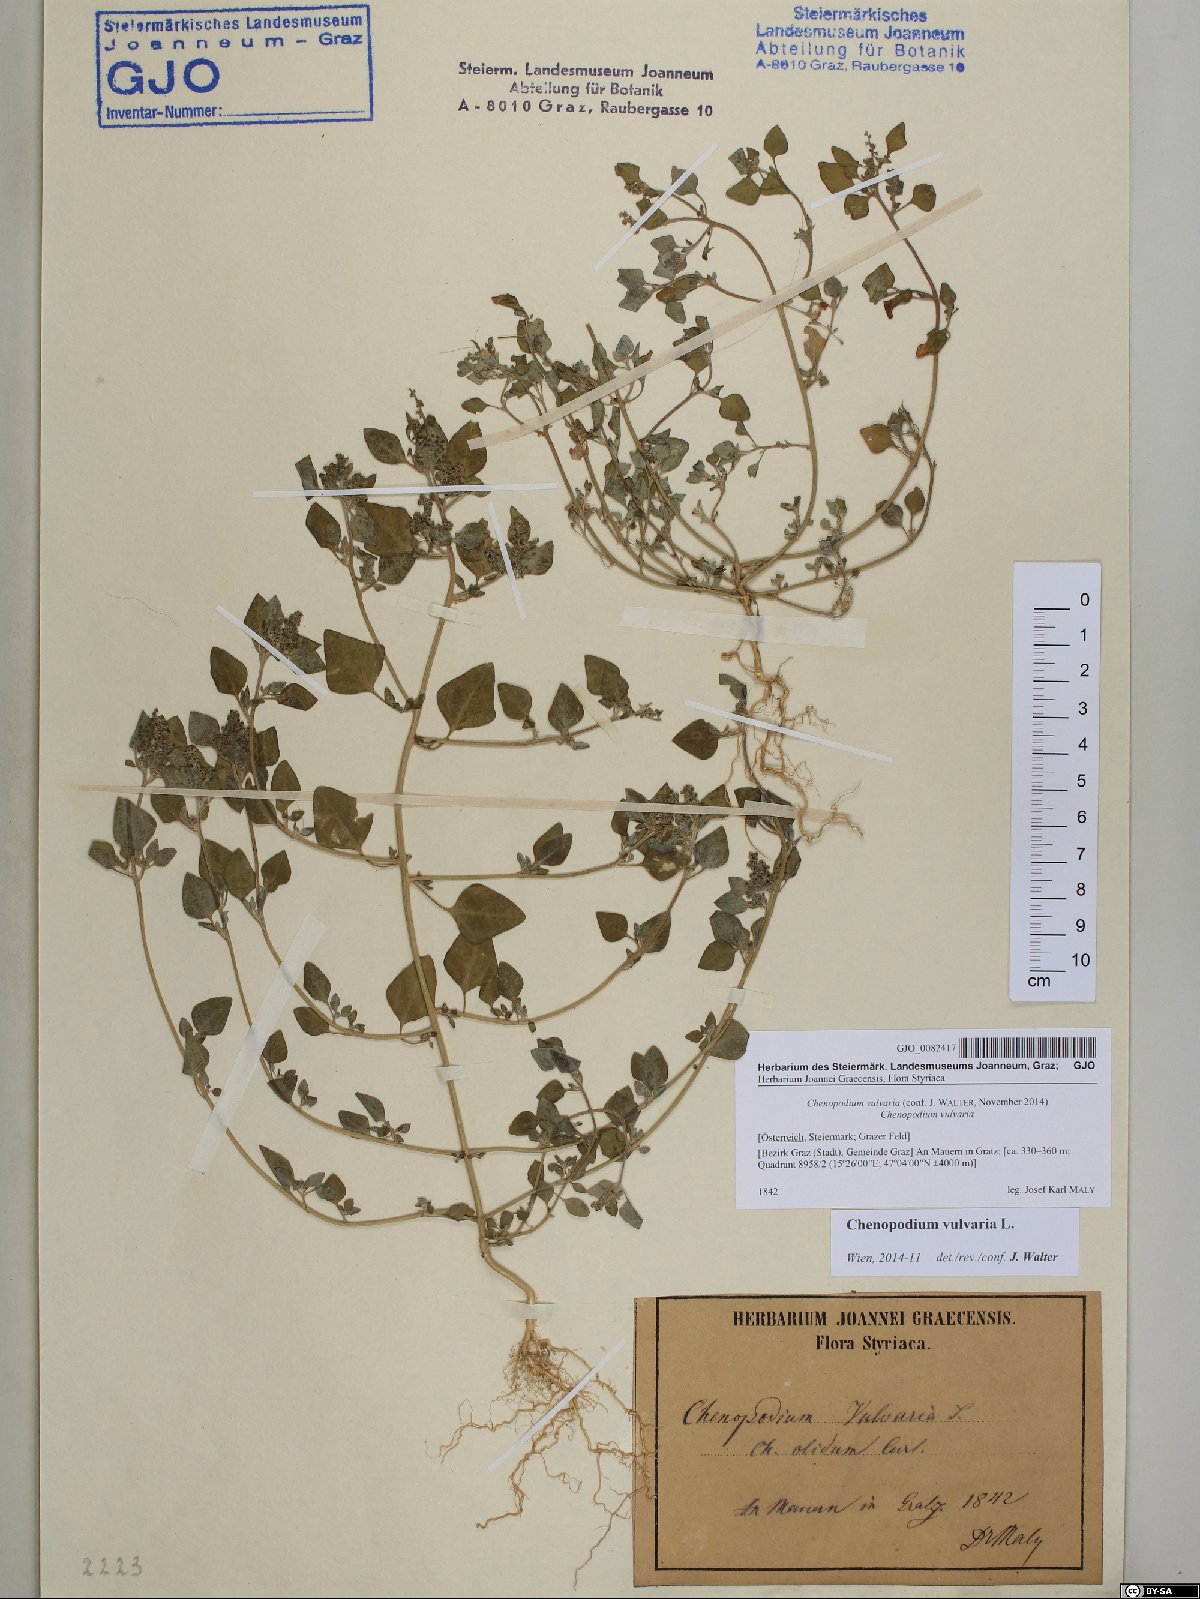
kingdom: Plantae
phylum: Tracheophyta
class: Magnoliopsida
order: Caryophyllales
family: Amaranthaceae
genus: Chenopodium
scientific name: Chenopodium vulvaria
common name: Stinking goosefoot
